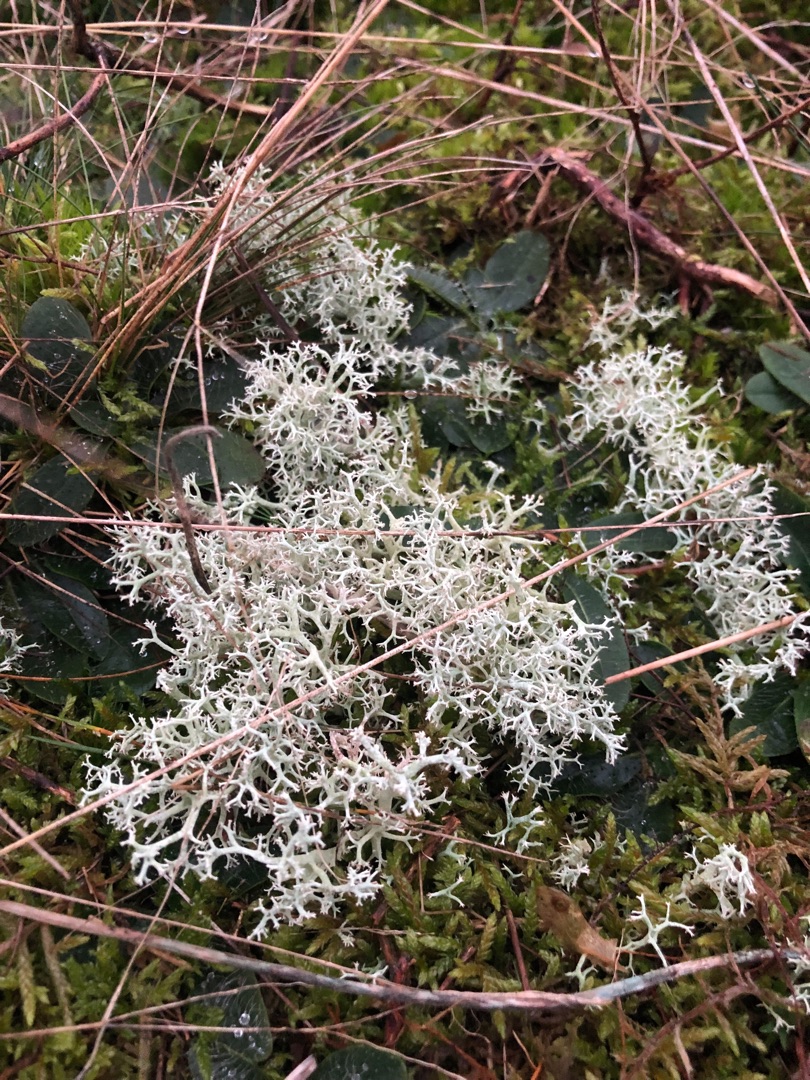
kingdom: Fungi
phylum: Ascomycota
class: Lecanoromycetes
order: Lecanorales
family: Cladoniaceae
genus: Cladonia
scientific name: Cladonia portentosa
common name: Hede-rensdyrlav
